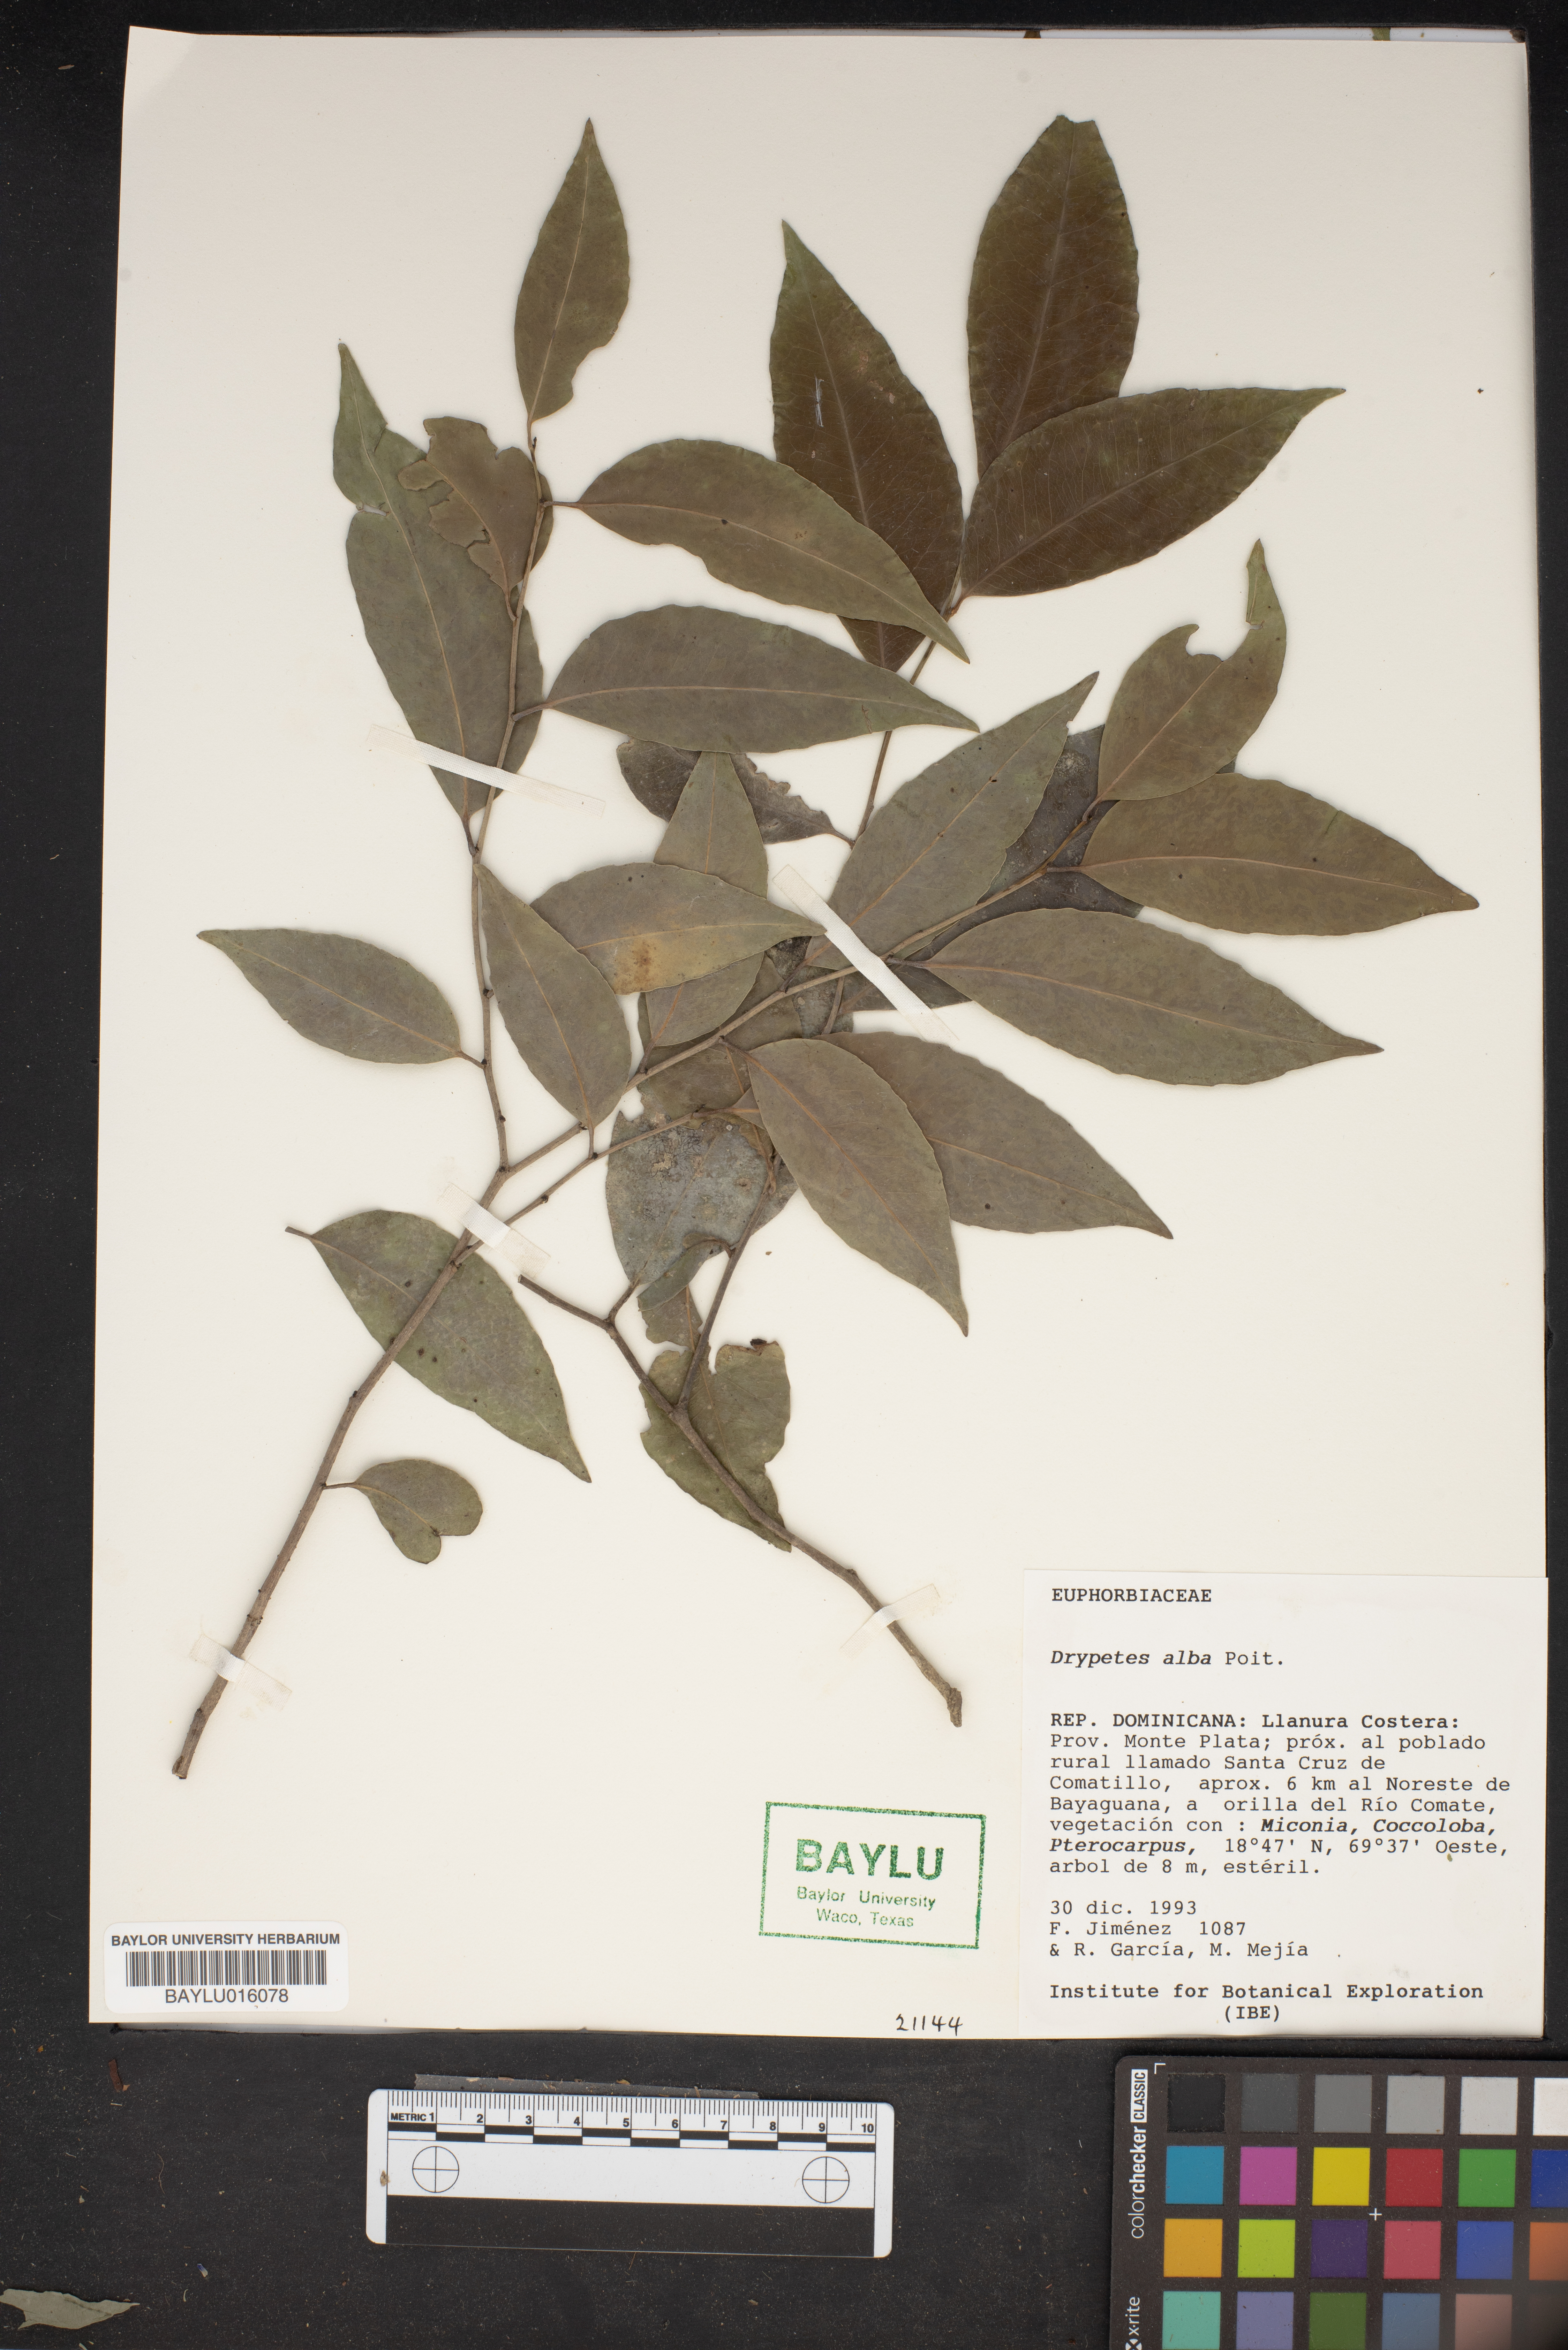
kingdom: Plantae
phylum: Tracheophyta
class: Magnoliopsida
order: Malpighiales
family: Putranjivaceae
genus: Drypetes
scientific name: Drypetes alba
